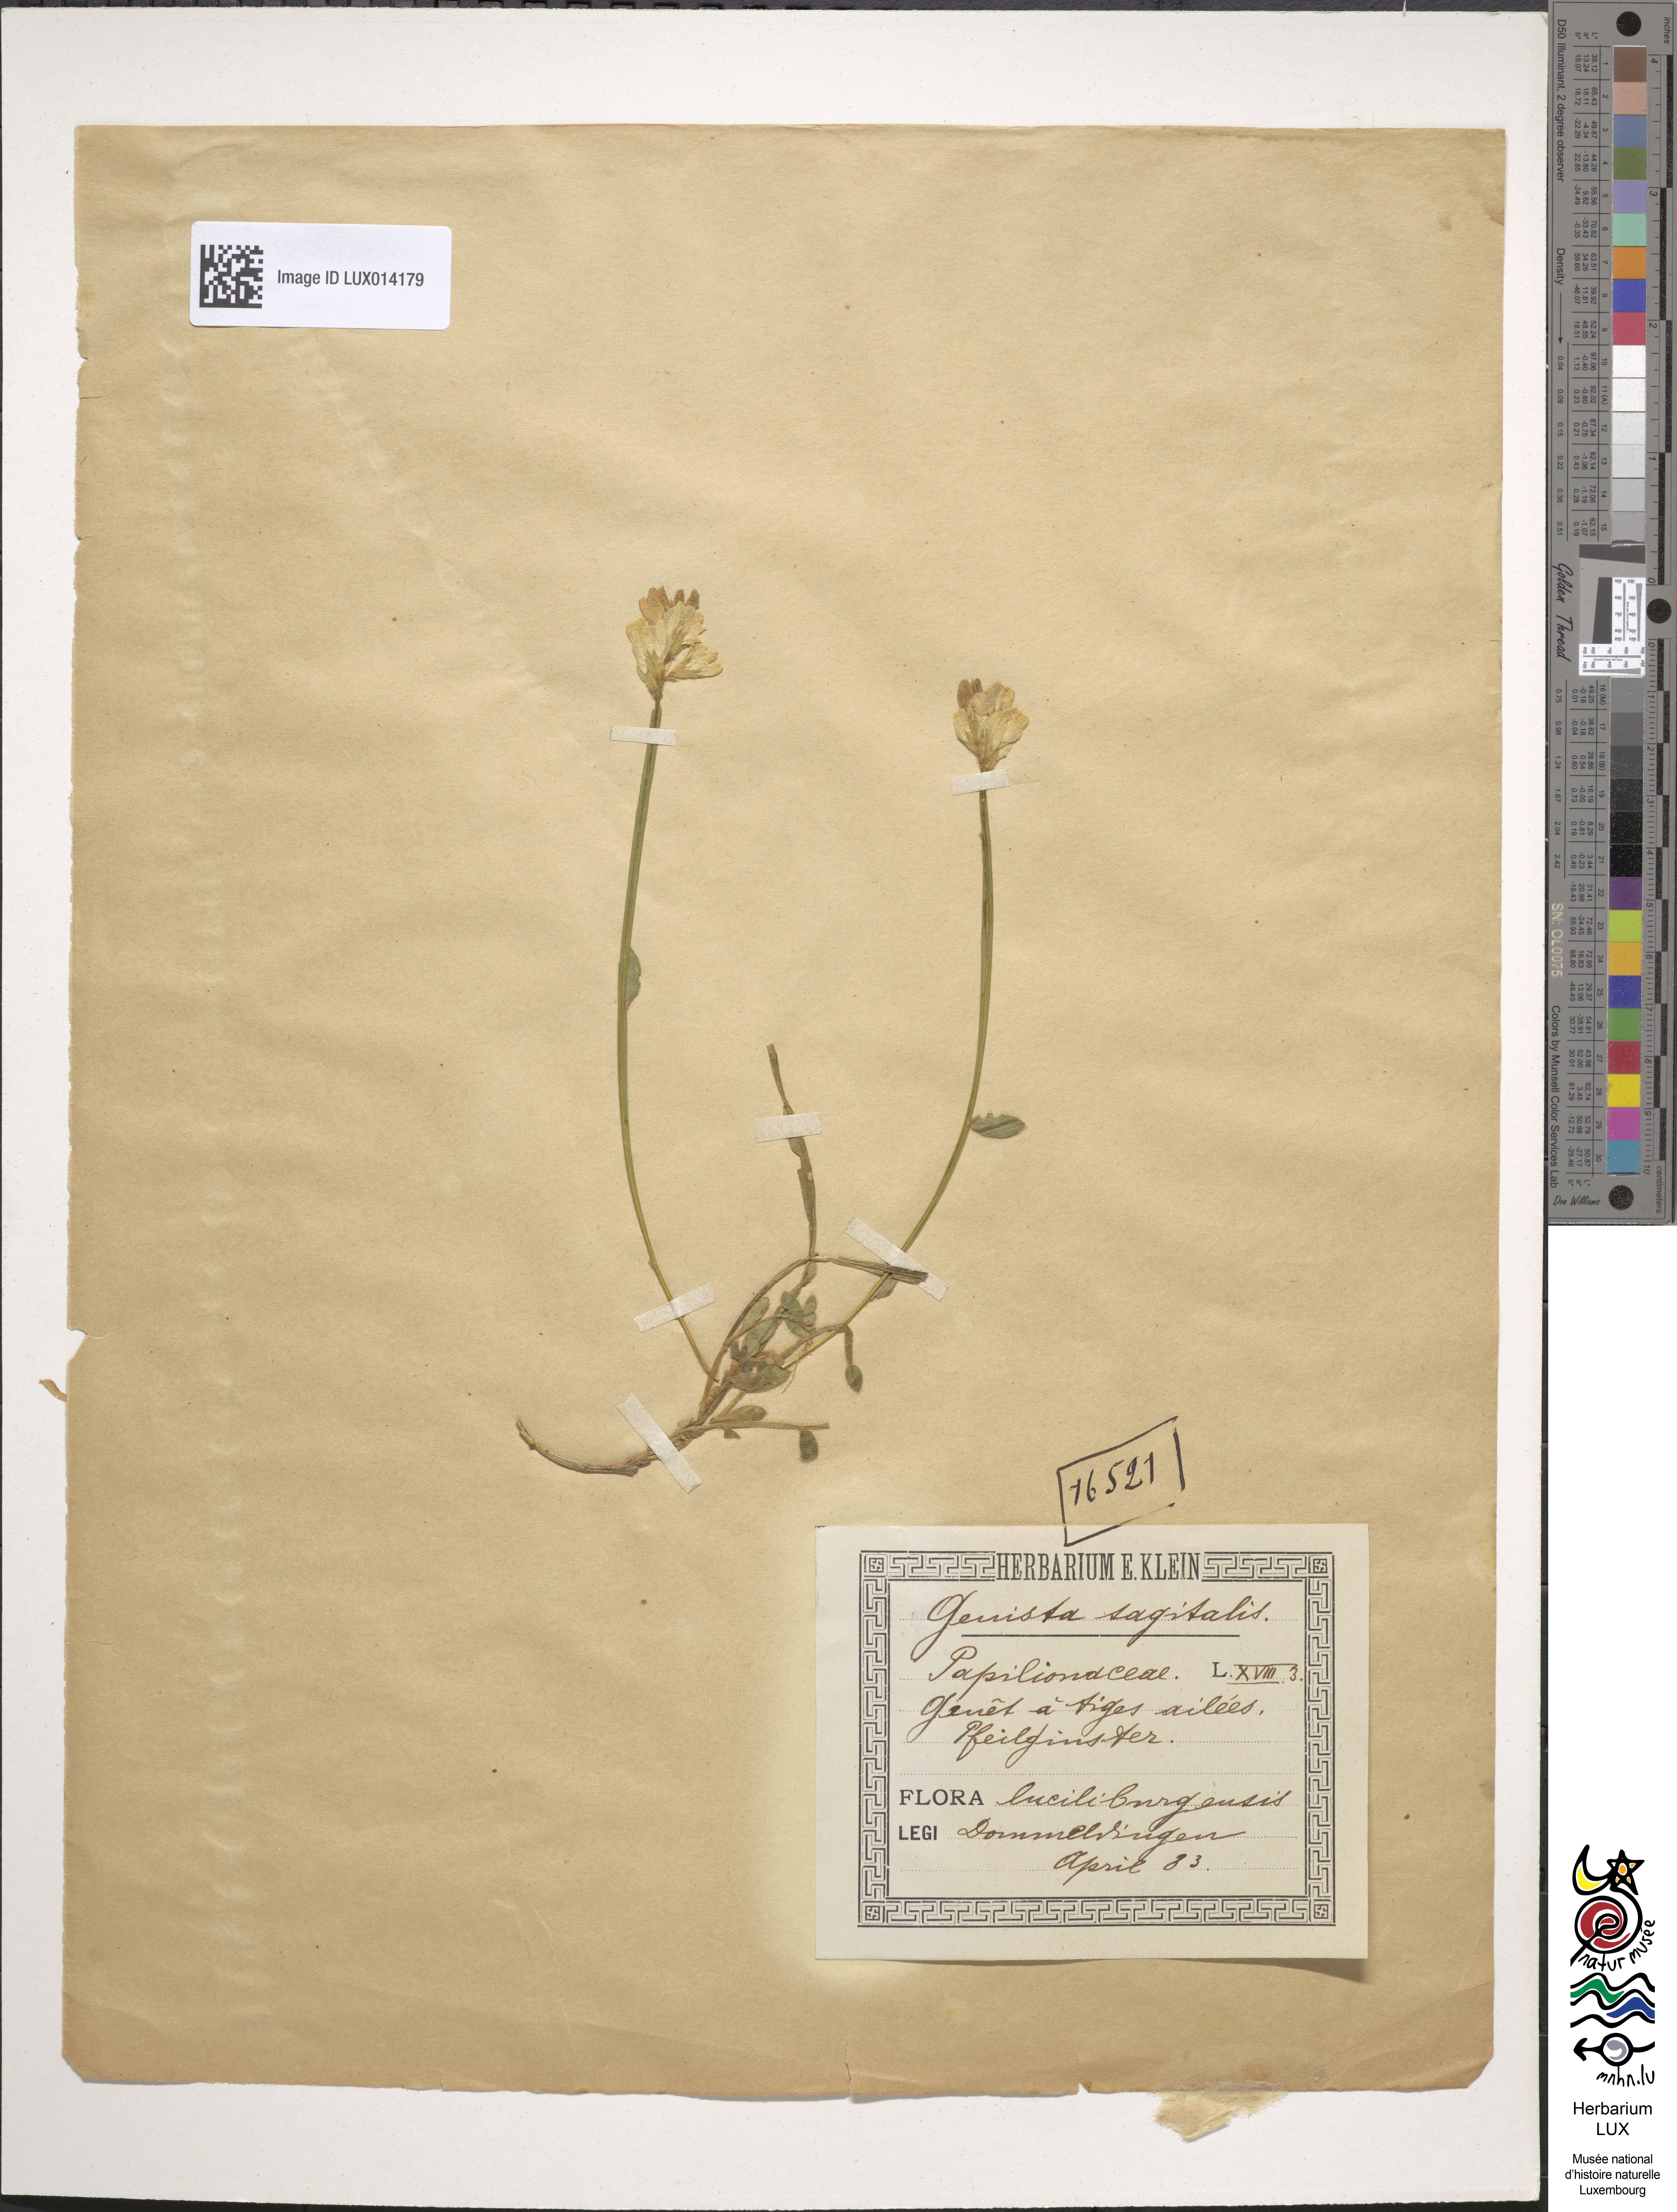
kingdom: Plantae
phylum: Tracheophyta
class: Magnoliopsida
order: Fabales
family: Fabaceae
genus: Genista
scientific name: Genista sagittalis
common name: Winged greenweed
